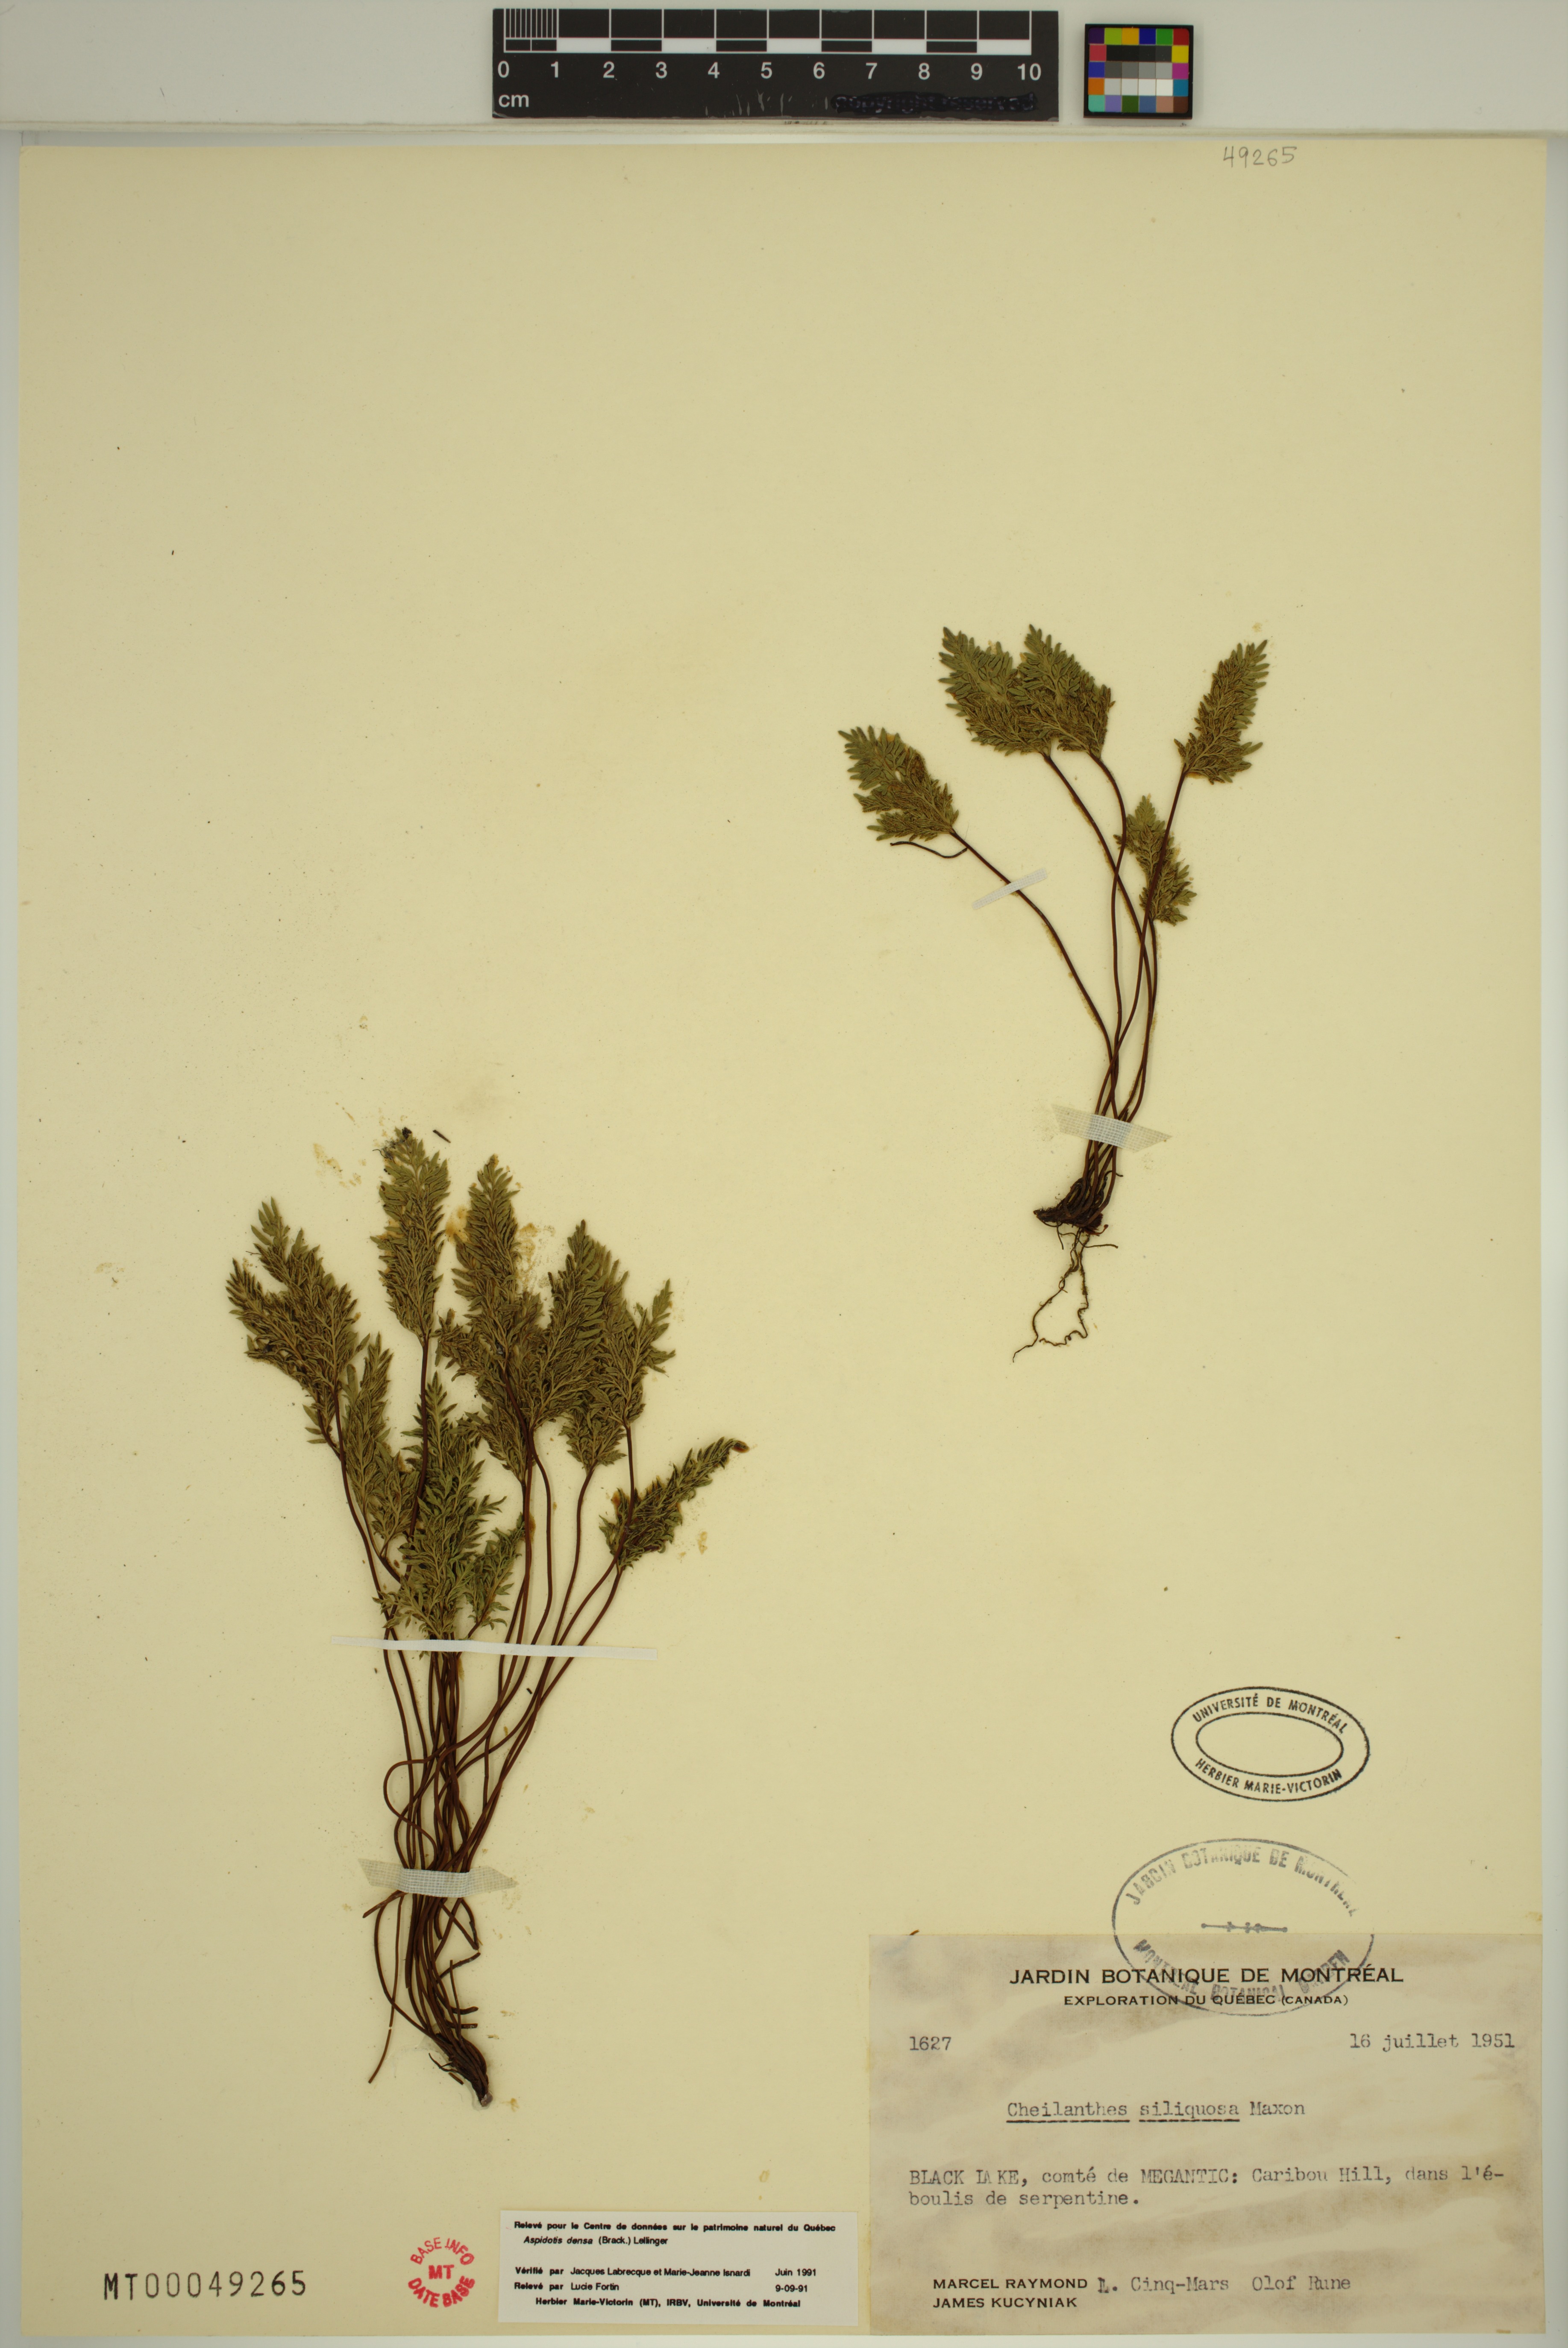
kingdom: Plantae
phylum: Tracheophyta
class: Polypodiopsida
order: Polypodiales
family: Pteridaceae
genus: Aspidotis
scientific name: Aspidotis densa
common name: Indian's dream
